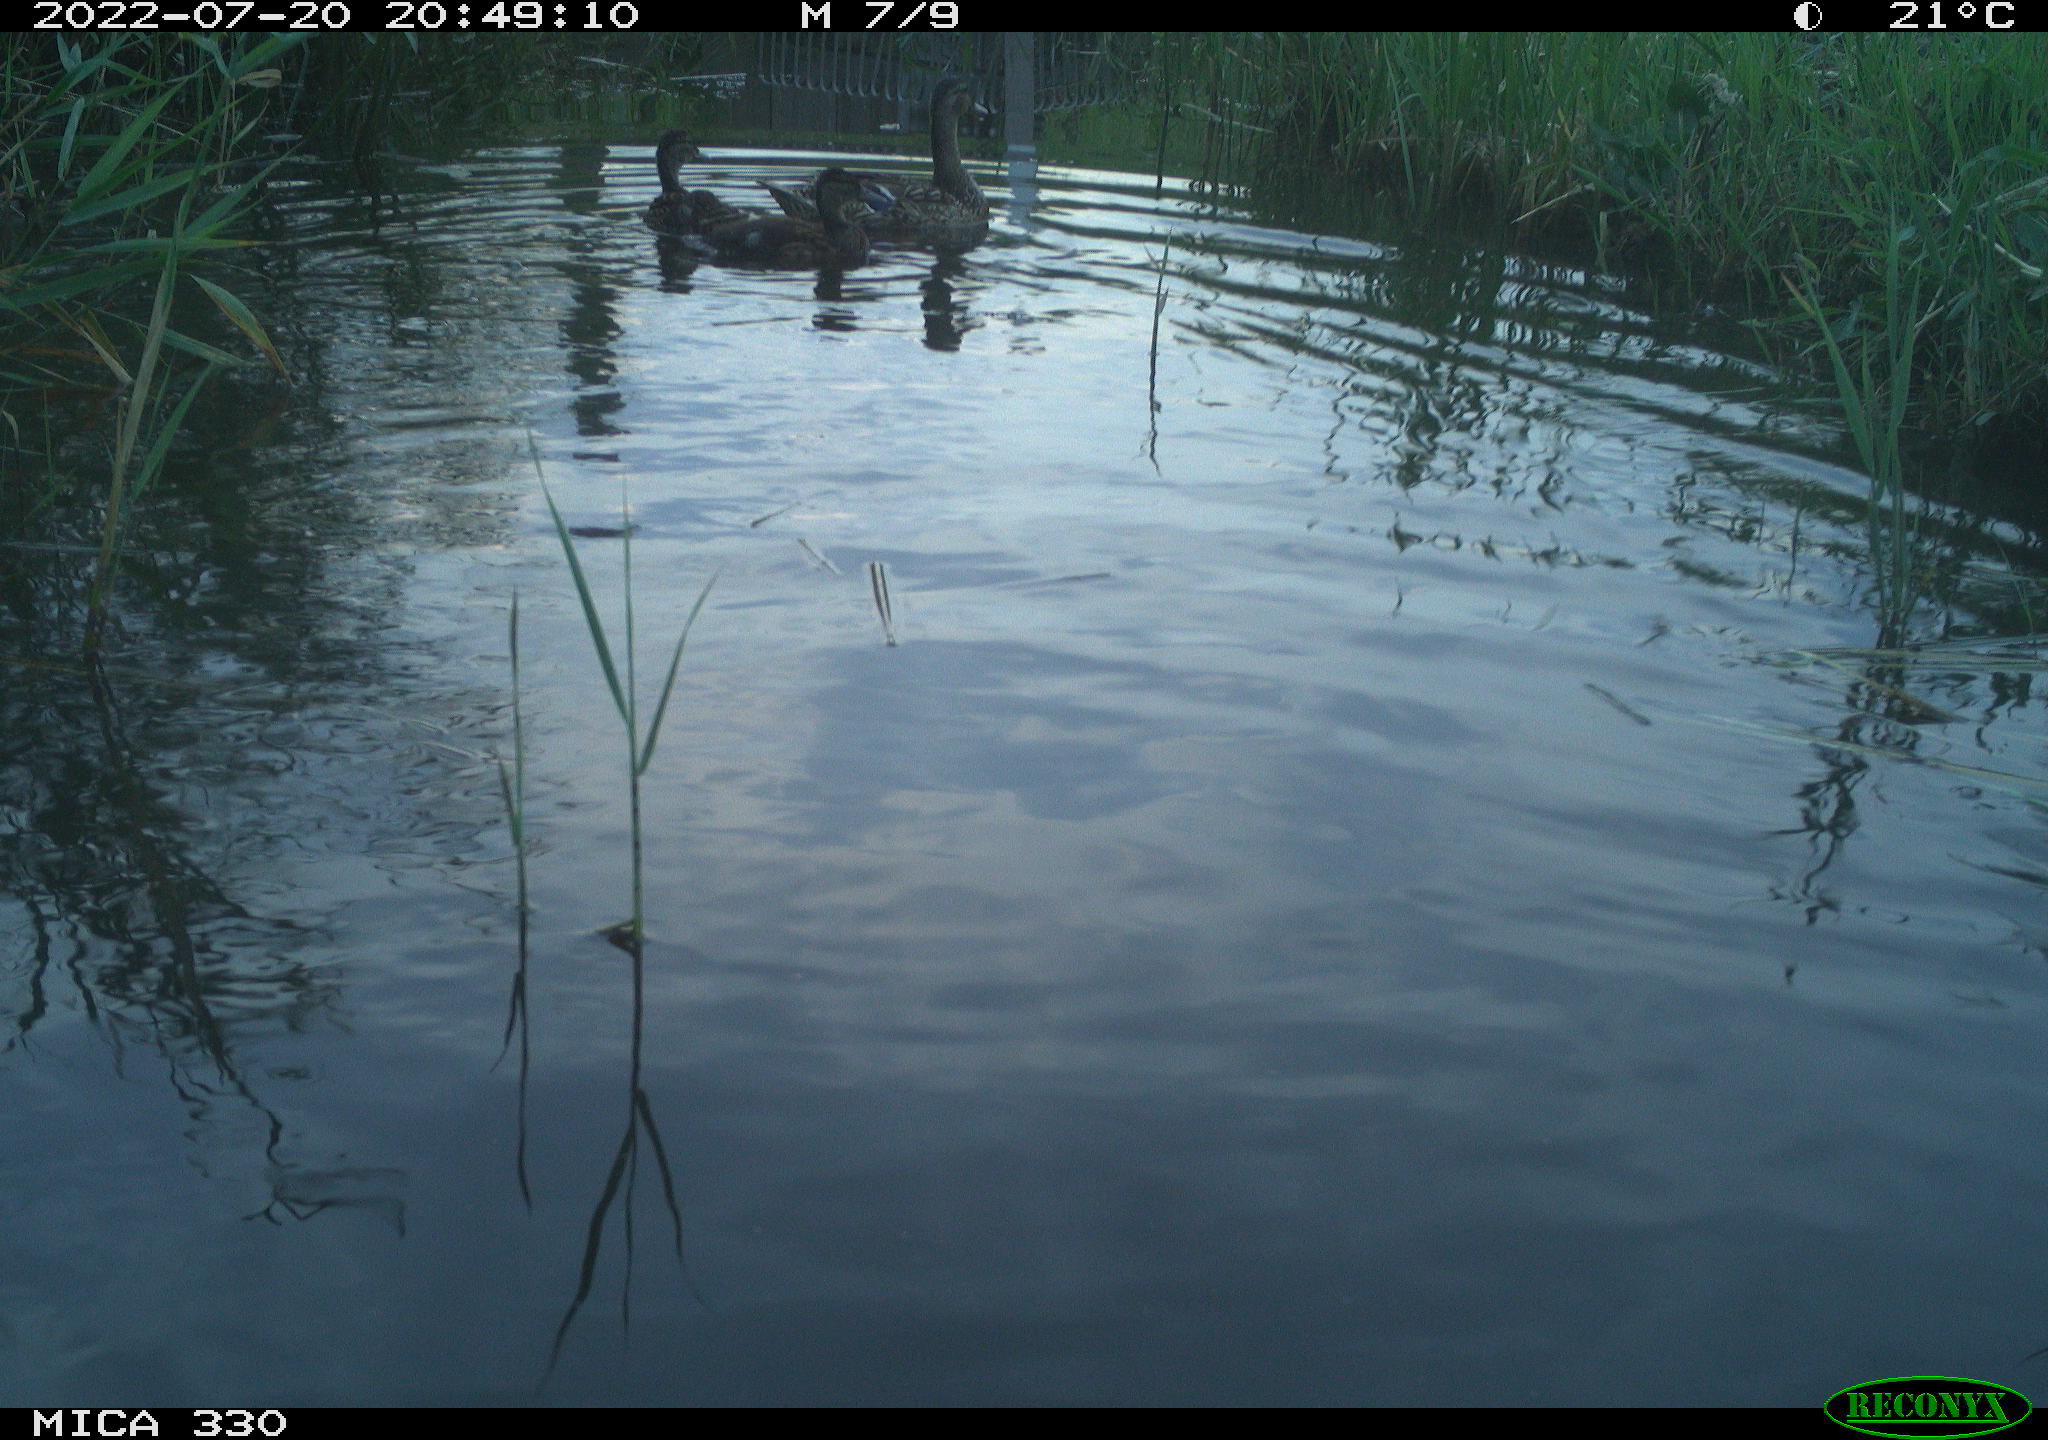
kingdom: Animalia
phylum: Chordata
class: Aves
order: Anseriformes
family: Anatidae
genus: Anas
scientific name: Anas platyrhynchos
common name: Mallard
